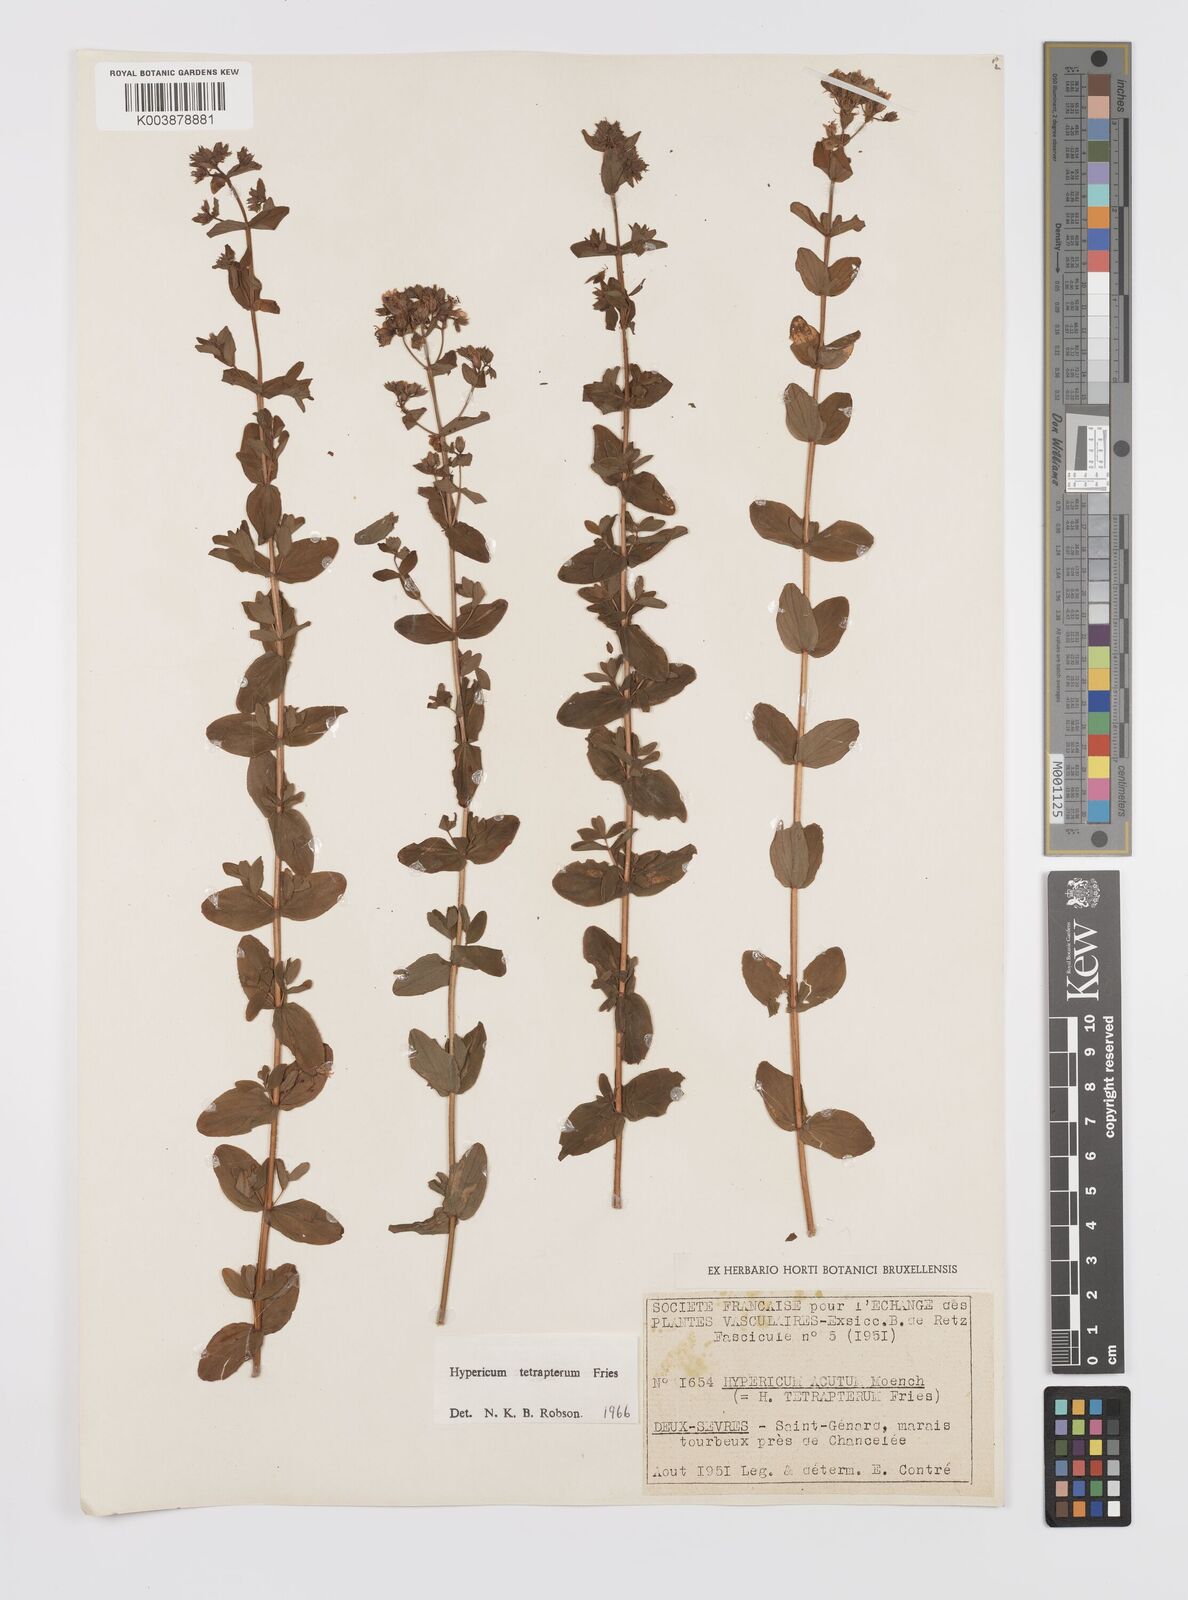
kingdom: Plantae
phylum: Tracheophyta
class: Magnoliopsida
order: Malpighiales
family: Hypericaceae
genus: Hypericum
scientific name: Hypericum tetrapterum
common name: Square-stalked st. john's-wort
